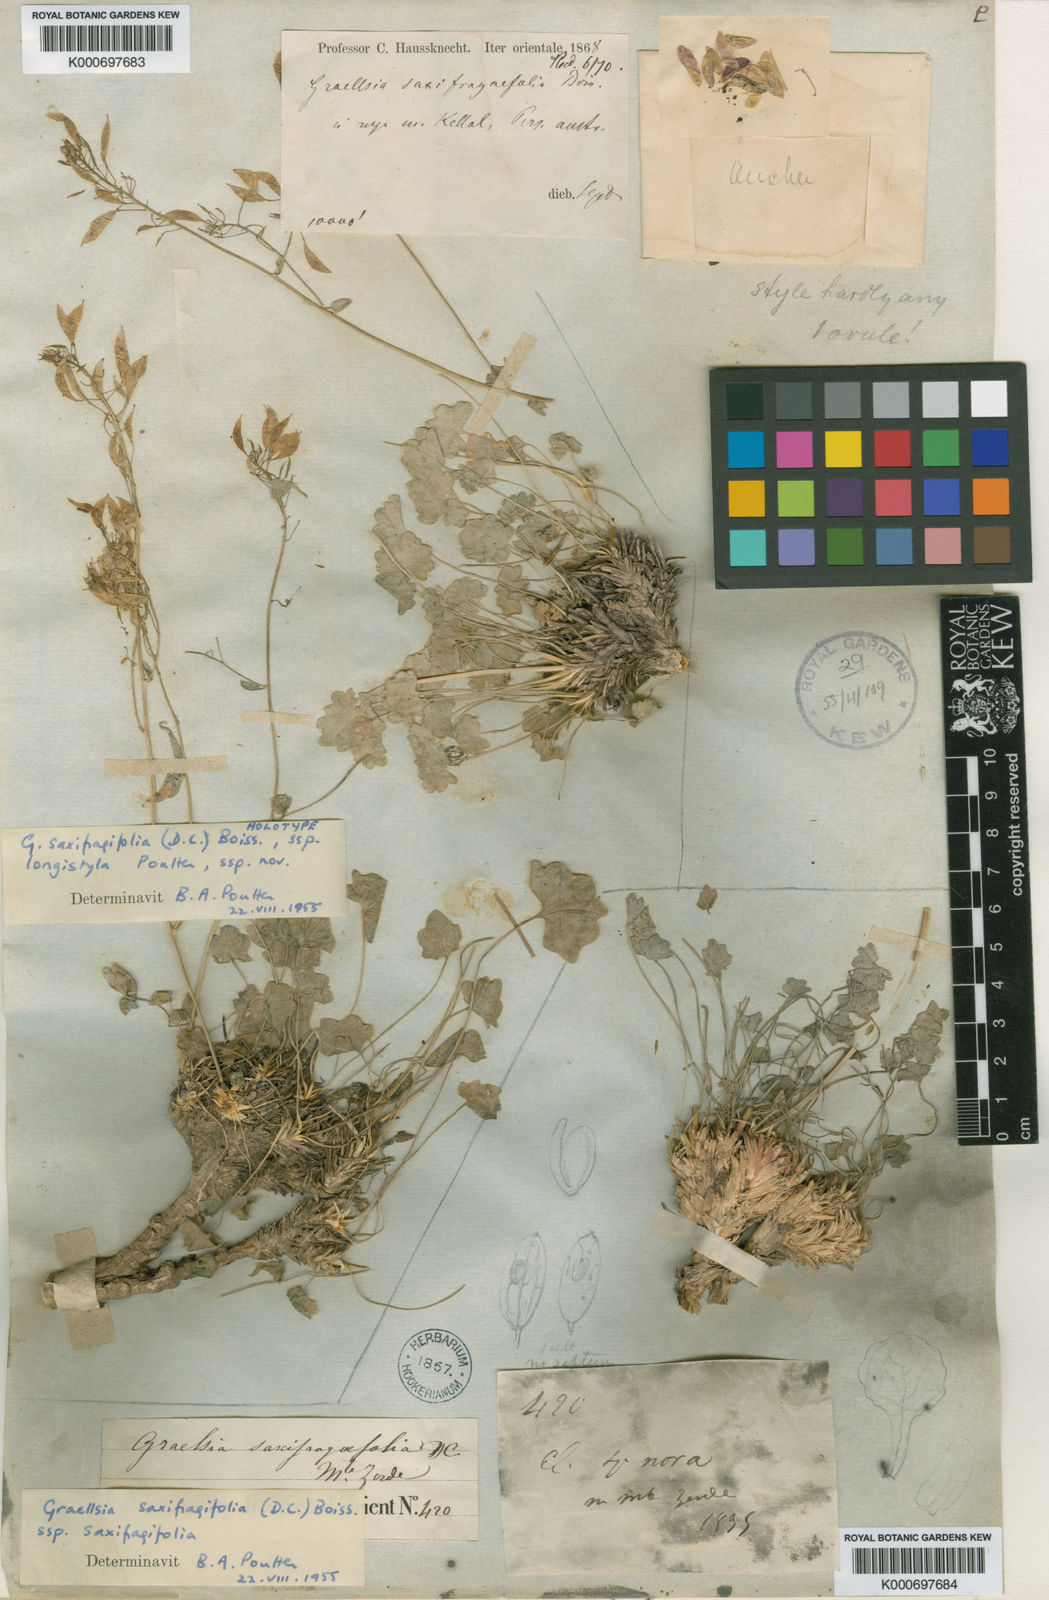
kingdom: Plantae
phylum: Tracheophyta
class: Magnoliopsida
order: Brassicales
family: Brassicaceae
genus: Graellsia
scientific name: Graellsia longistyla
